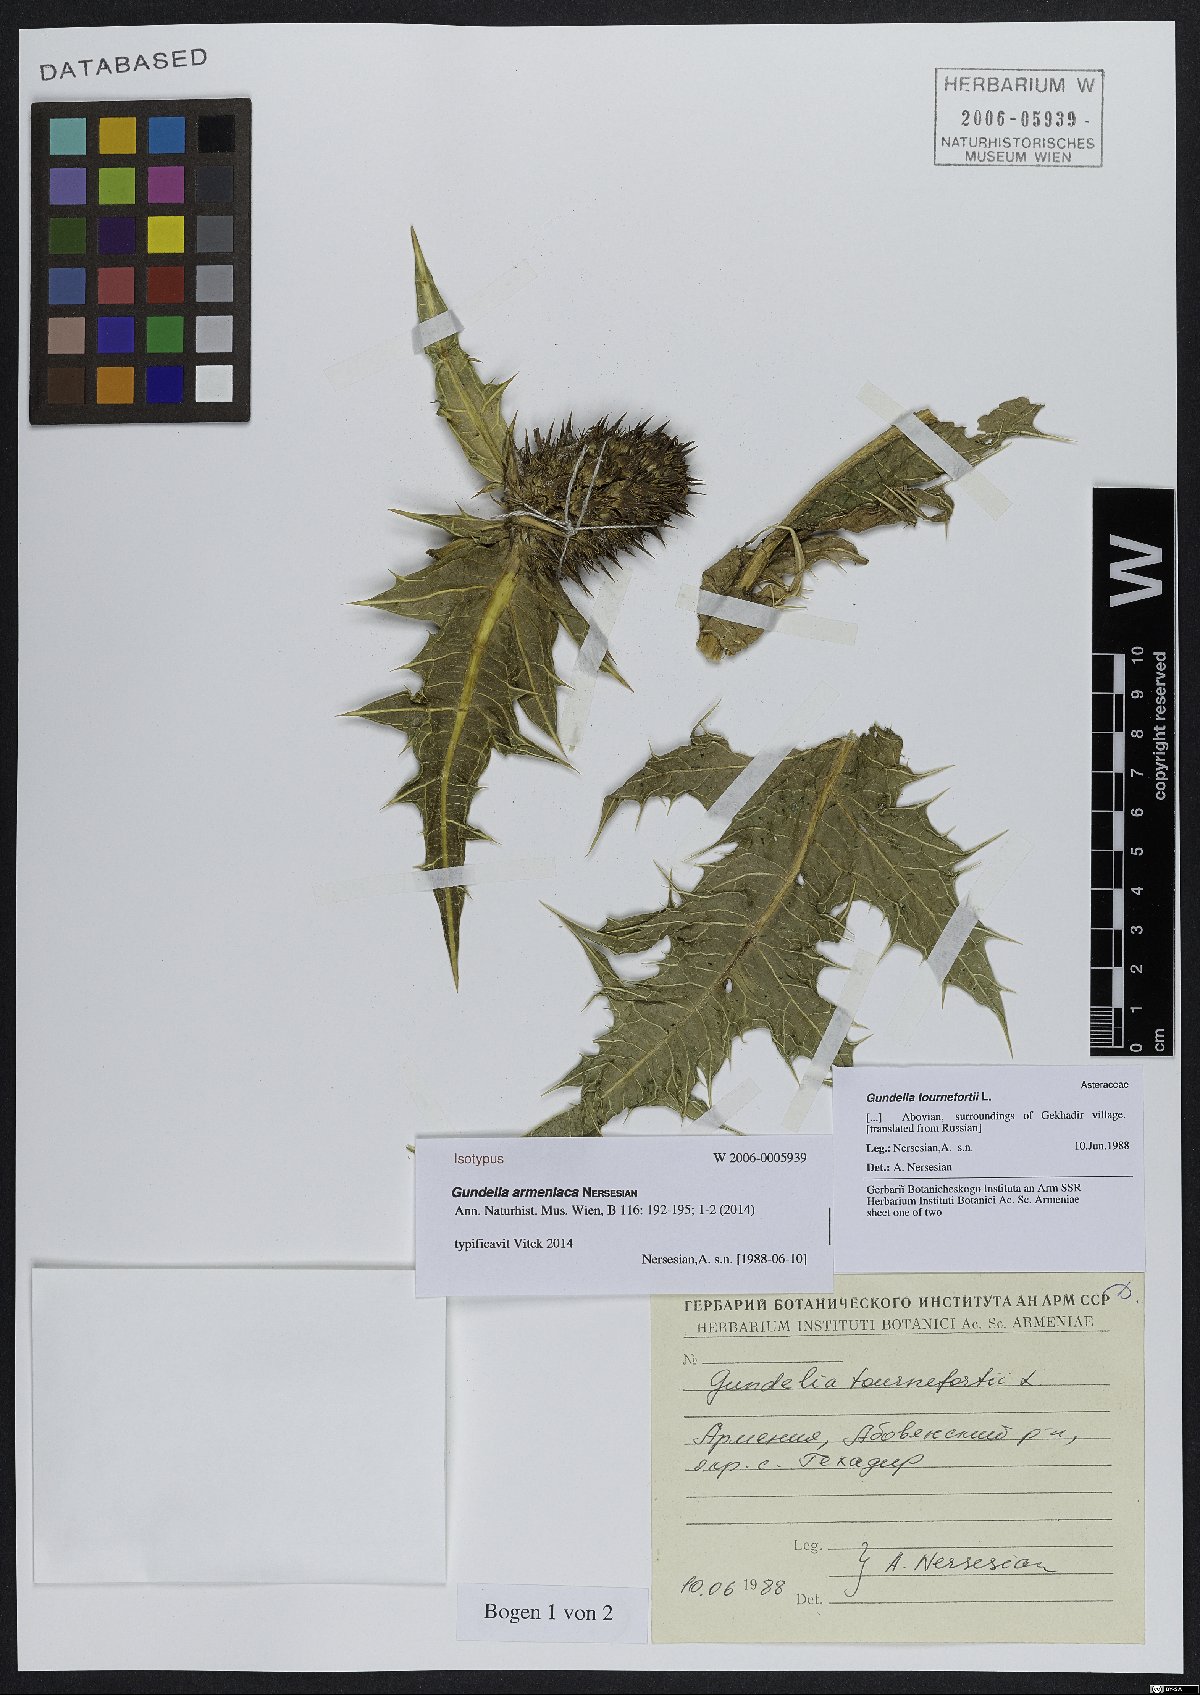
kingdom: Plantae
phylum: Tracheophyta
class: Magnoliopsida
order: Asterales
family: Asteraceae
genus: Gundelia
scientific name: Gundelia armeniaca
